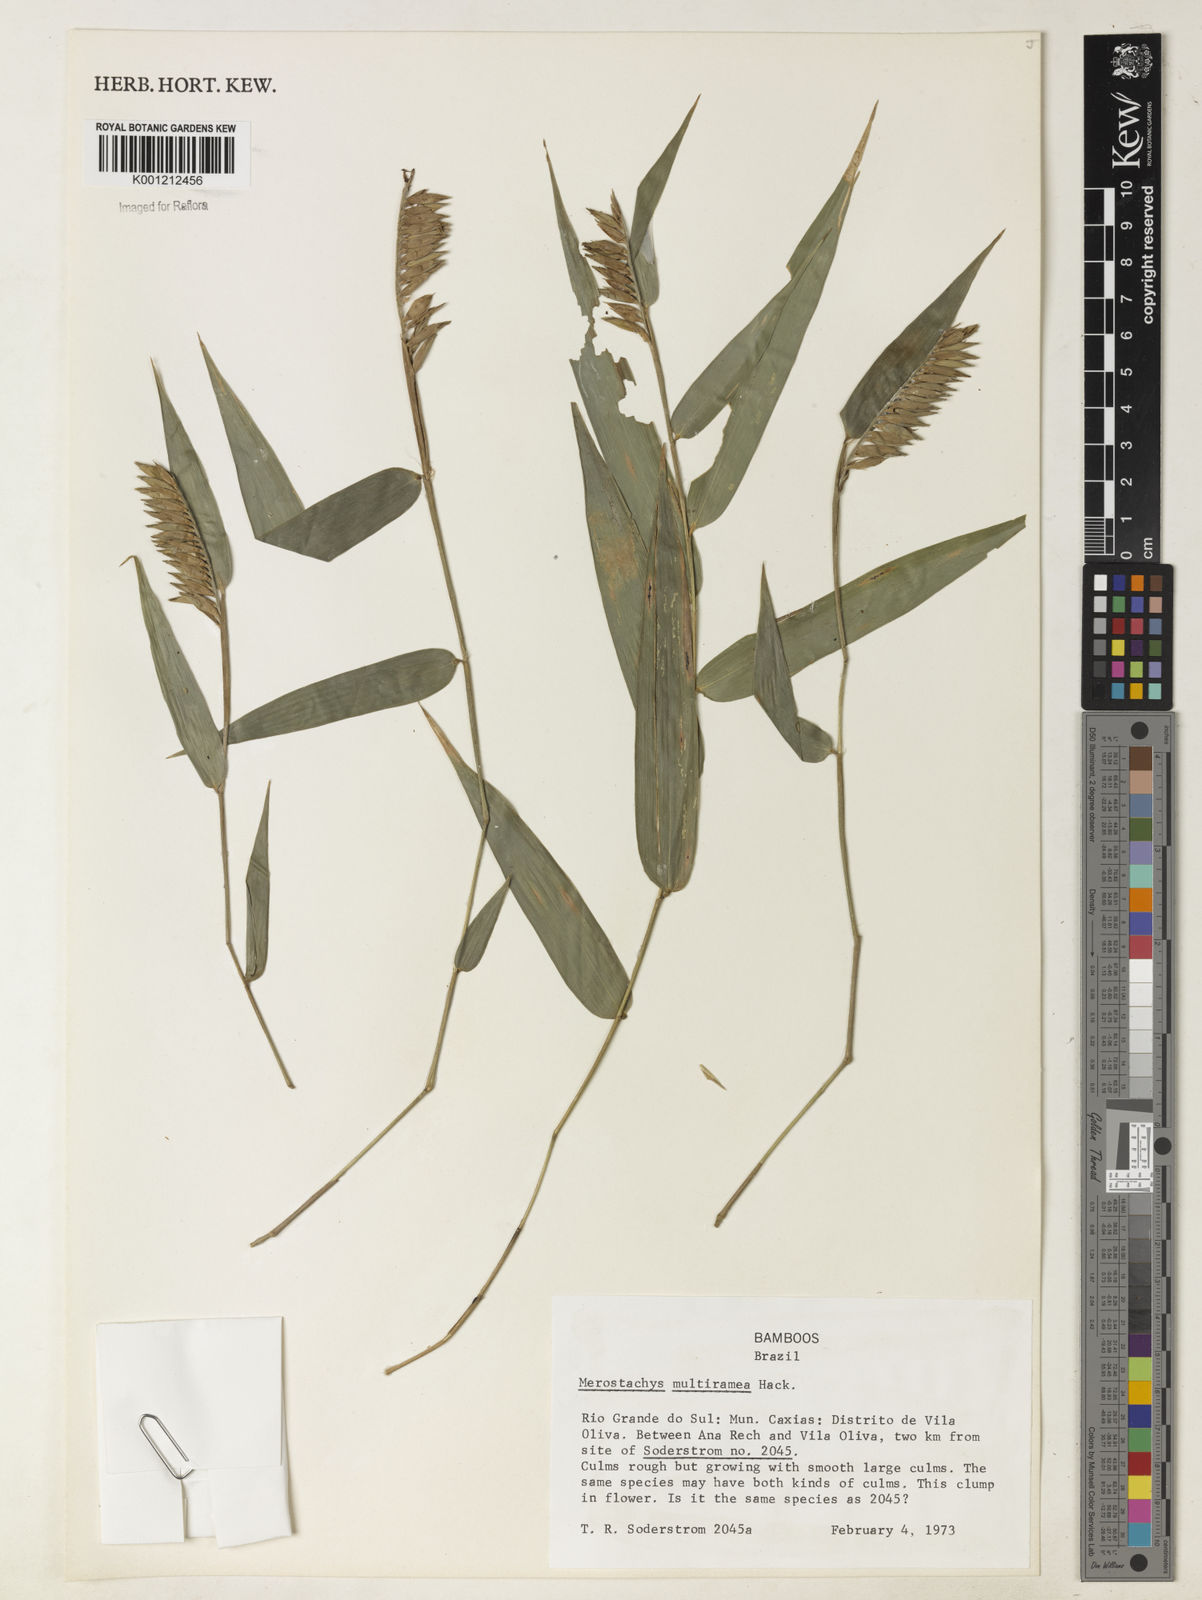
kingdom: Plantae
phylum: Tracheophyta
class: Liliopsida
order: Poales
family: Poaceae
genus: Merostachys
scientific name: Merostachys multiramea
